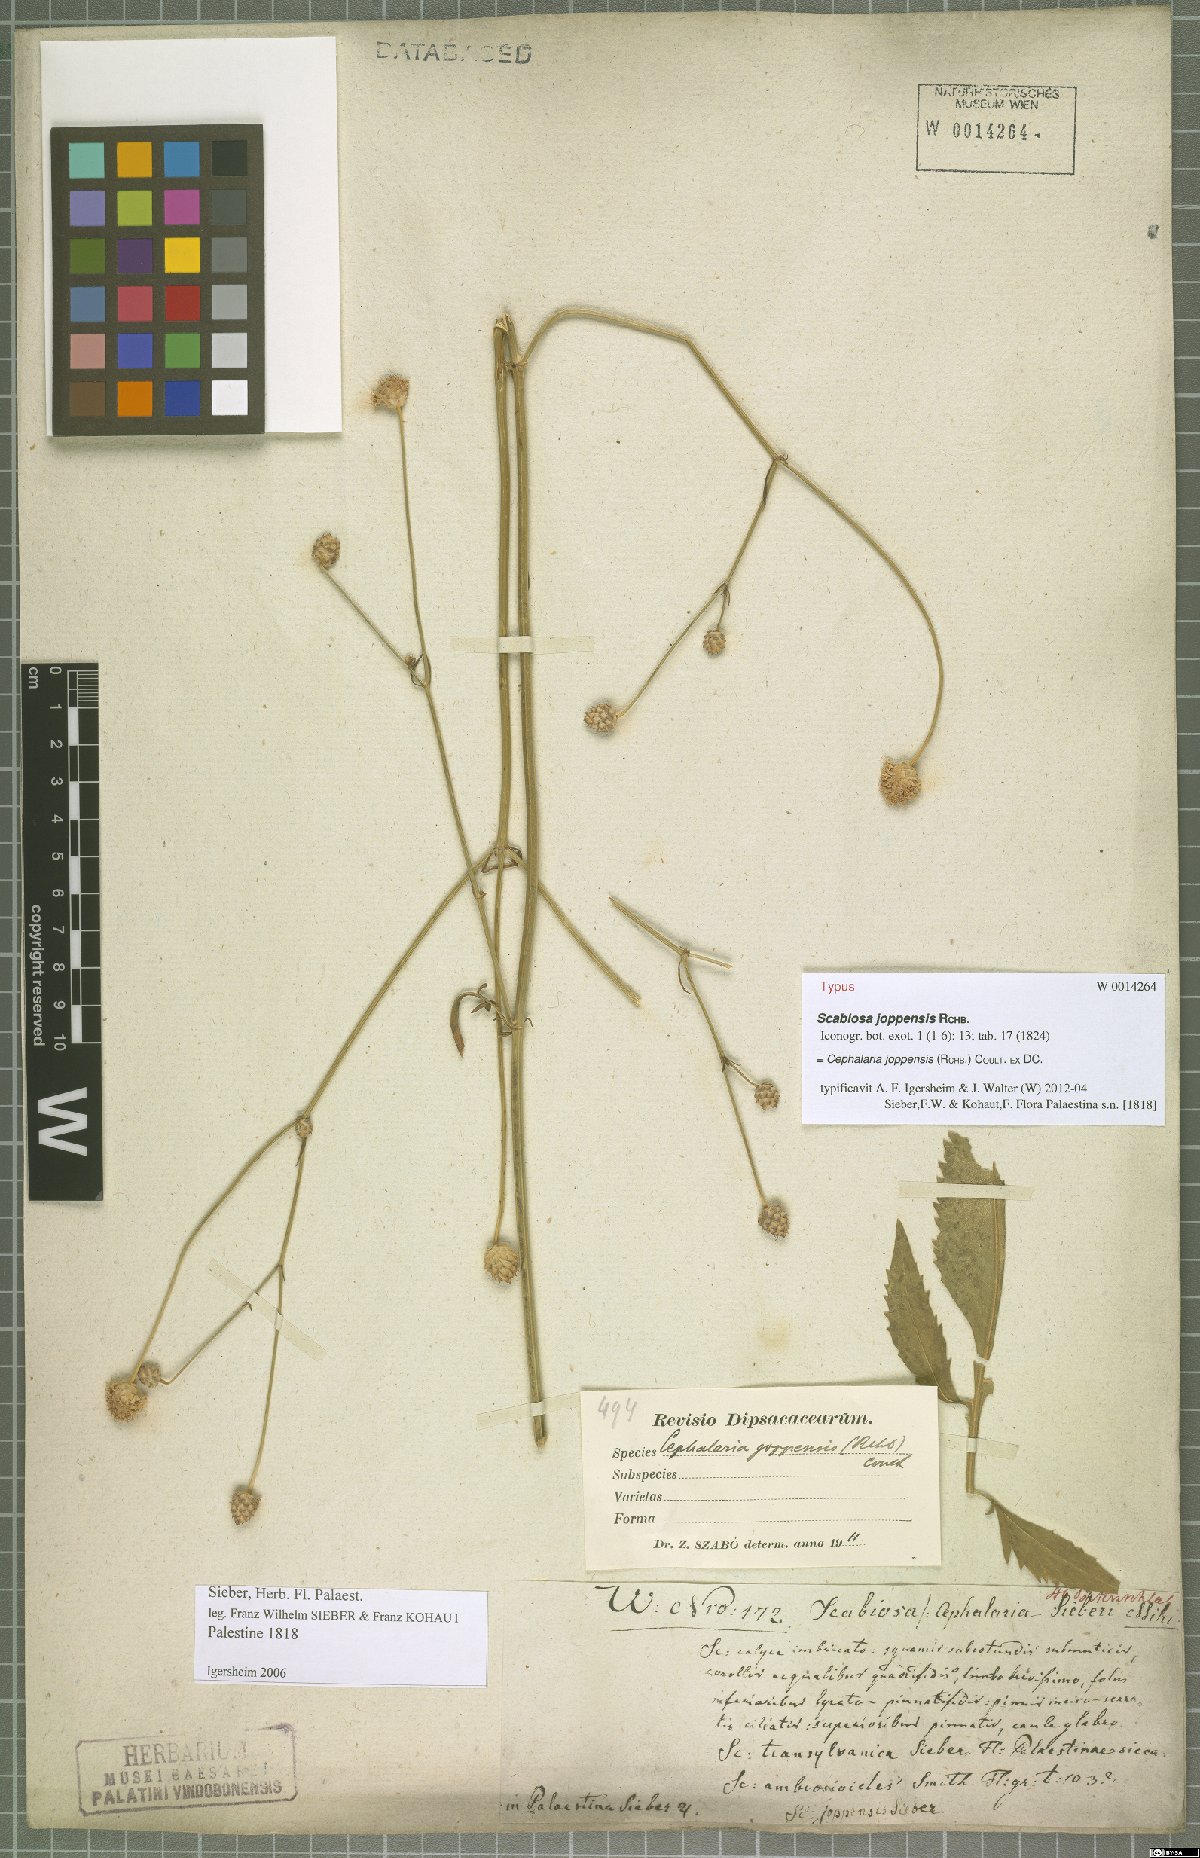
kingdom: Plantae
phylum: Tracheophyta
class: Magnoliopsida
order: Dipsacales
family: Caprifoliaceae
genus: Cephalaria
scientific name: Cephalaria joppensis
